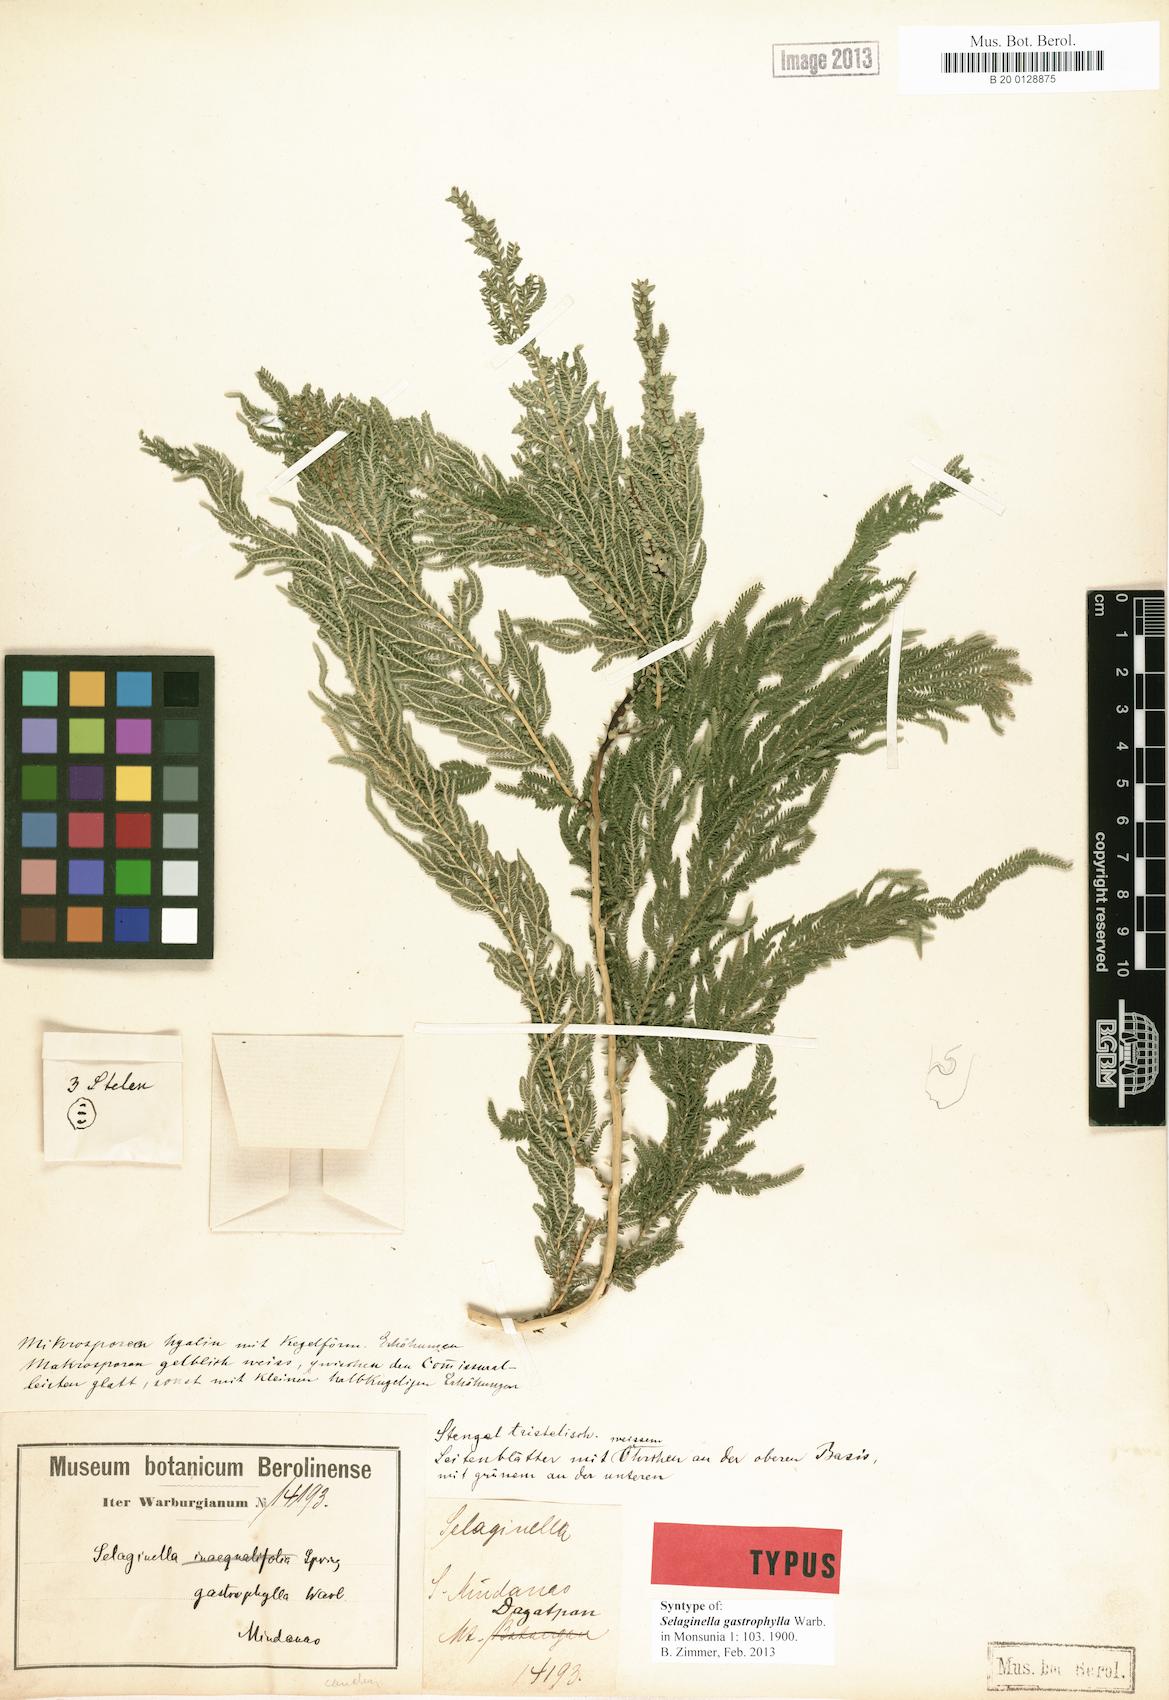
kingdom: Plantae
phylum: Tracheophyta
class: Lycopodiopsida
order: Selaginellales
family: Selaginellaceae
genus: Selaginella
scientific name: Selaginella gastrophylla
